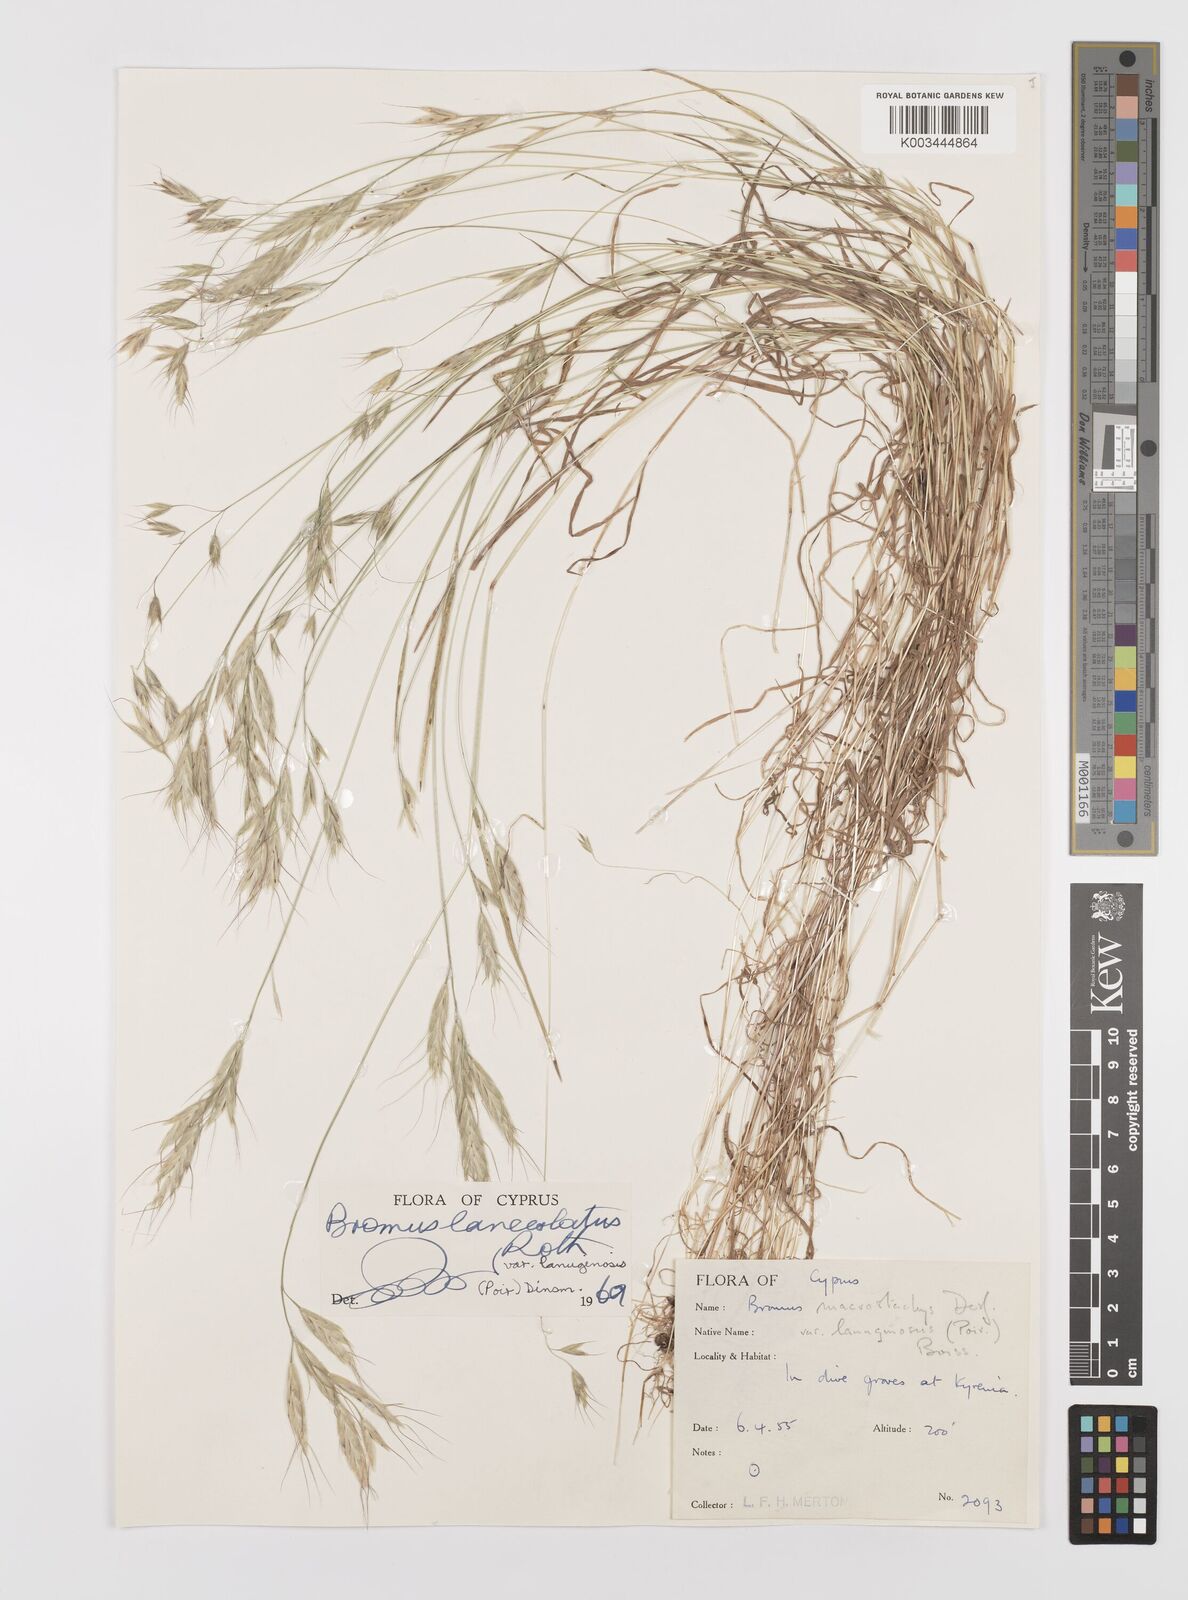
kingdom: Plantae
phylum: Tracheophyta
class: Liliopsida
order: Poales
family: Poaceae
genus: Bromus
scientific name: Bromus lanceolatus
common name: Mediterranean brome
